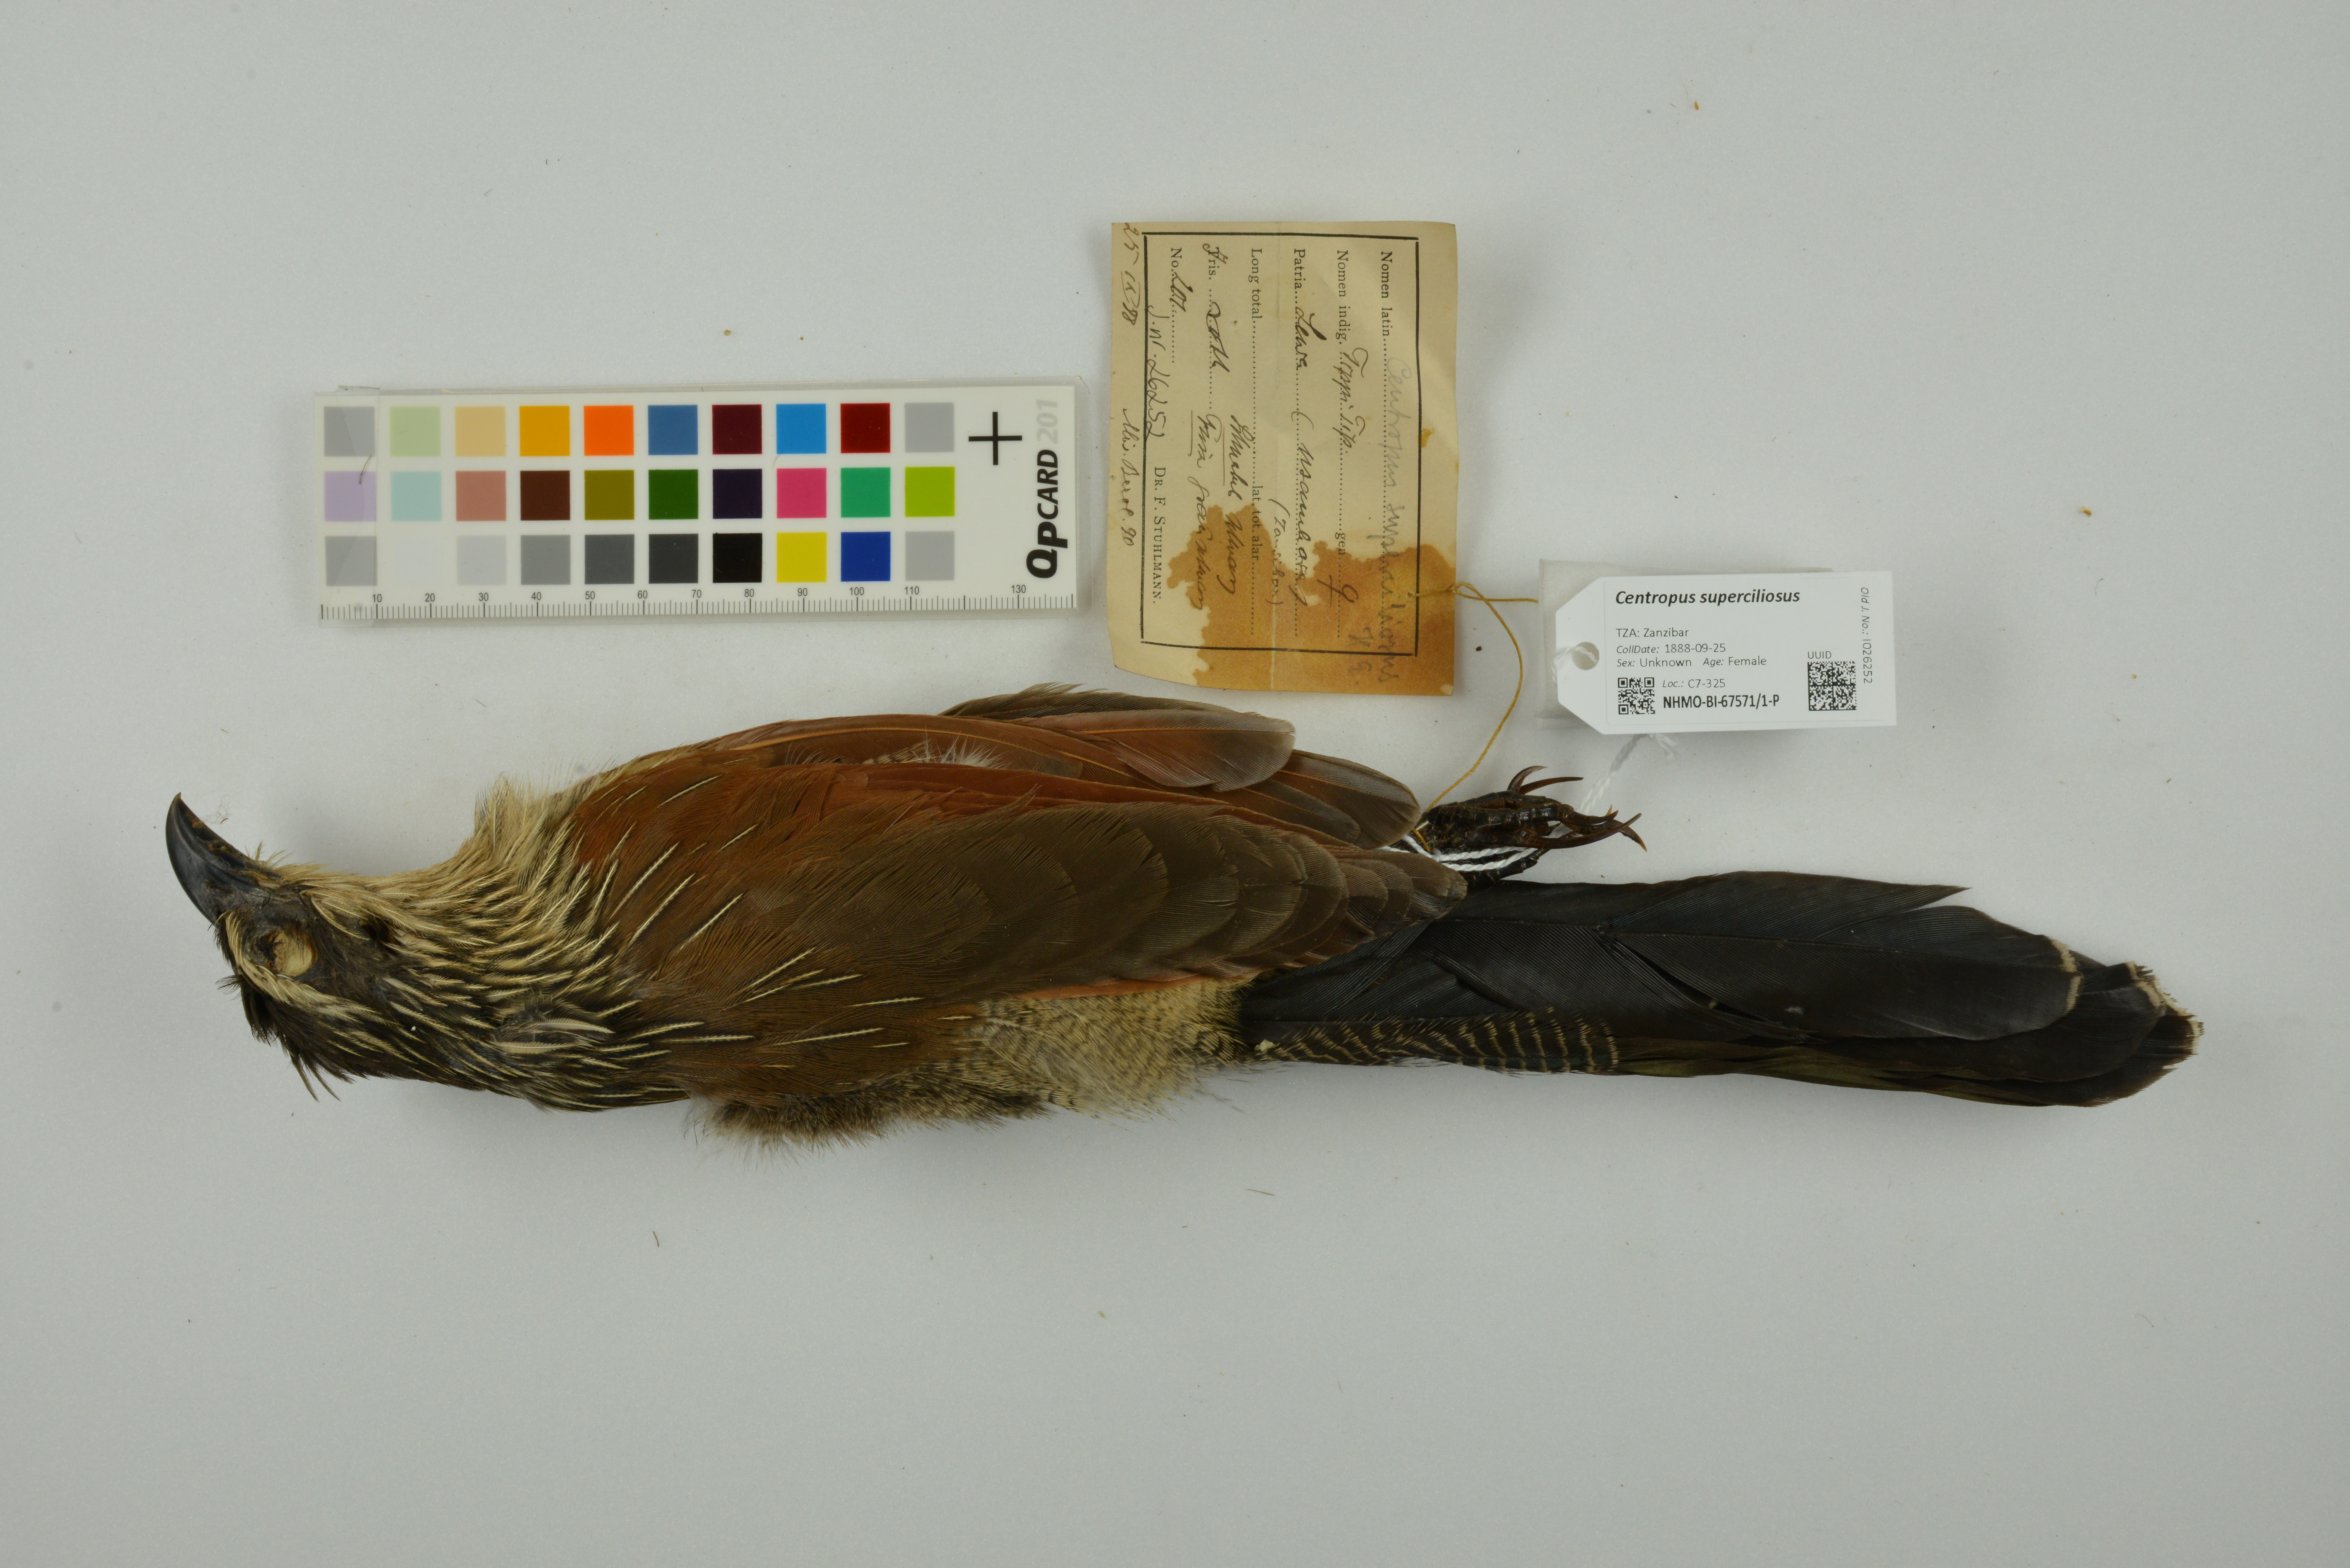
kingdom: Animalia
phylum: Chordata
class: Aves
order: Cuculiformes
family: Cuculidae
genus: Centropus
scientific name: Centropus superciliosus
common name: White-browed coucal
